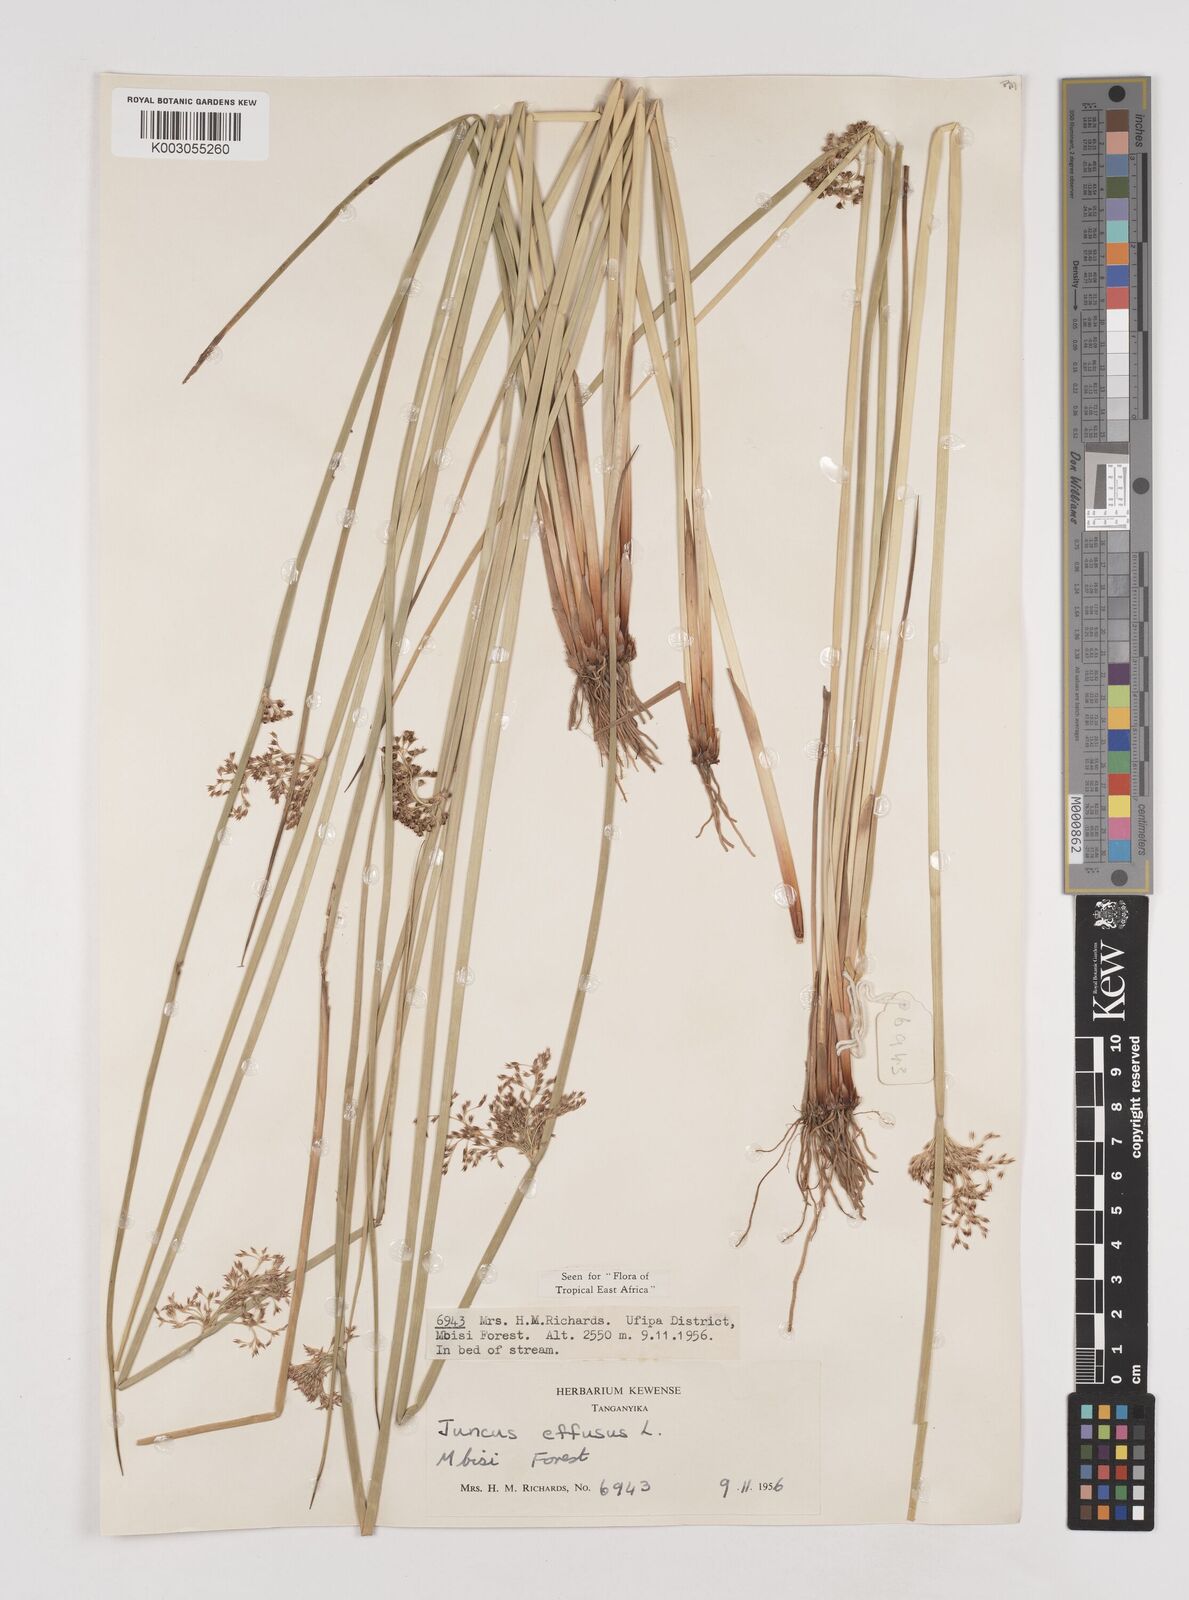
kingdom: Plantae
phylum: Tracheophyta
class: Liliopsida
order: Poales
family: Juncaceae
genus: Juncus
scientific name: Juncus effusus
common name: Soft rush
